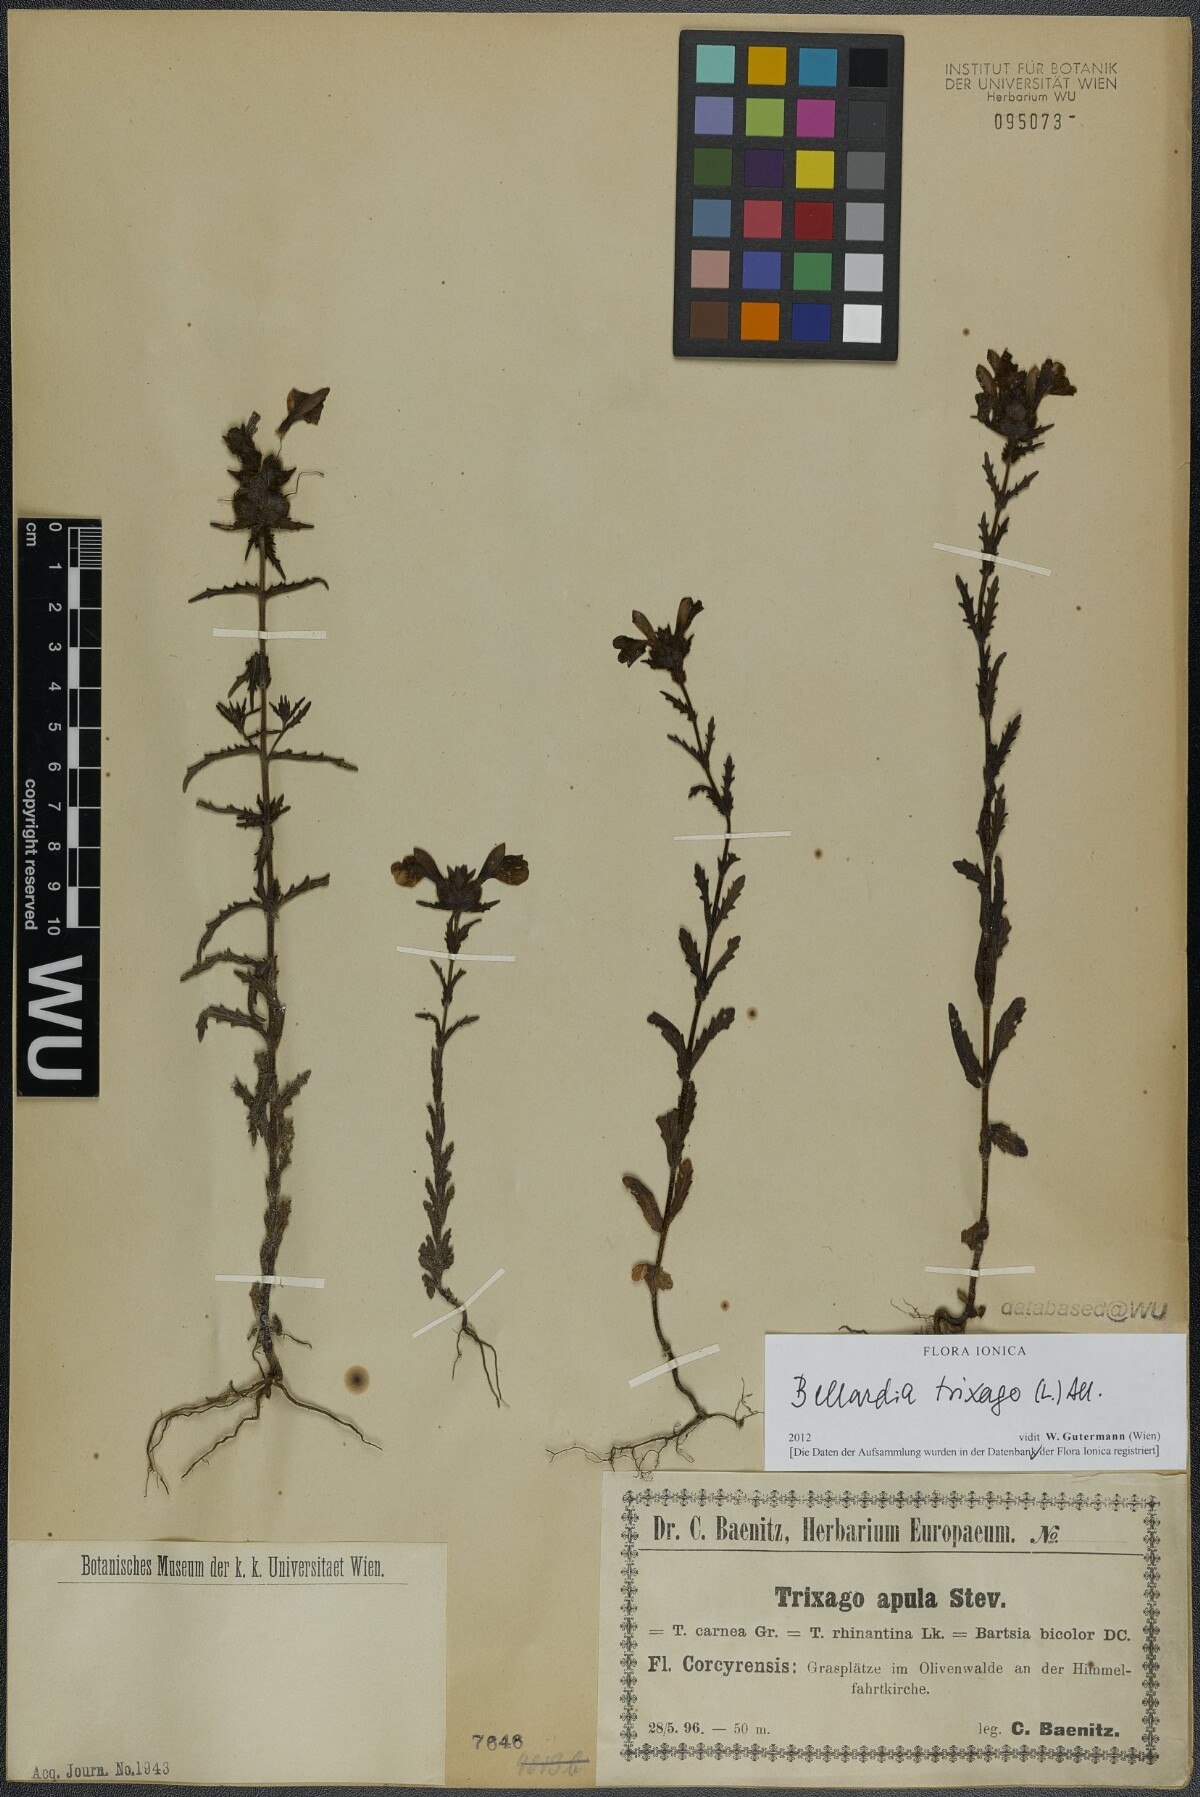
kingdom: Plantae
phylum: Tracheophyta
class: Magnoliopsida
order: Lamiales
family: Orobanchaceae
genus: Bellardia
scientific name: Bellardia trixago
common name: Mediterranean lineseed
